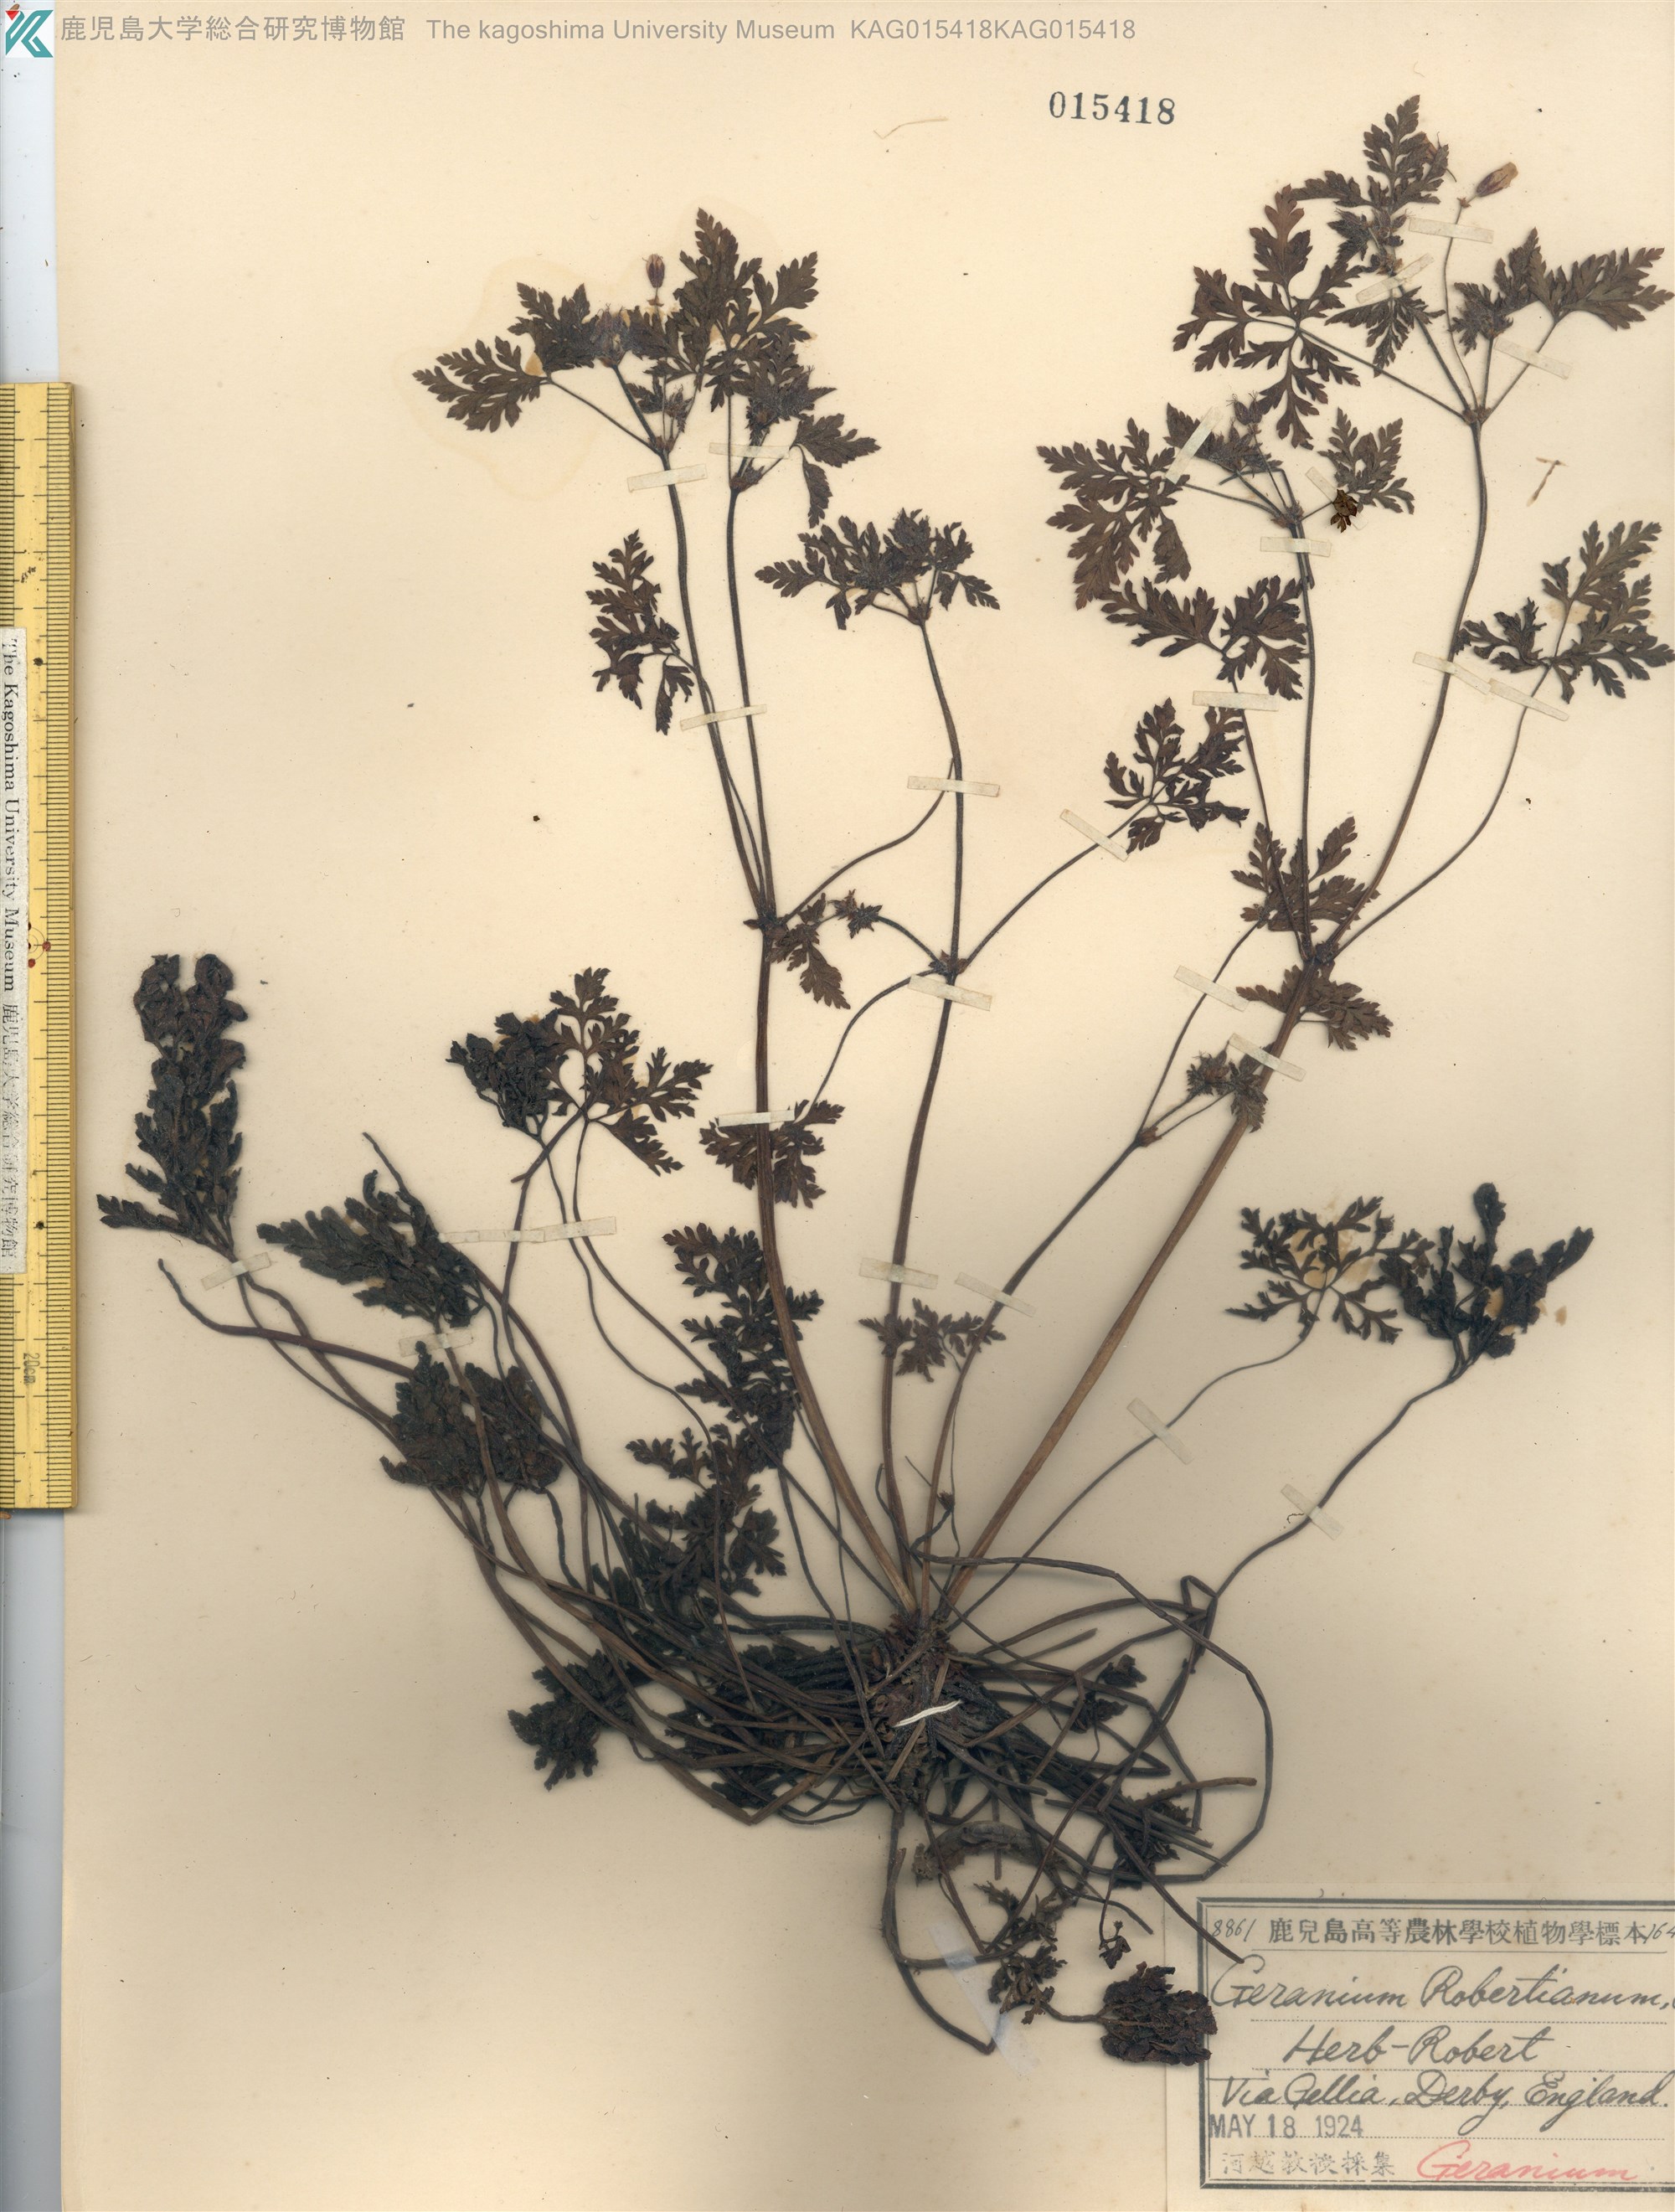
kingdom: Plantae
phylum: Tracheophyta
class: Magnoliopsida
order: Geraniales
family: Geraniaceae
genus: Geranium
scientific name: Geranium robertianum
